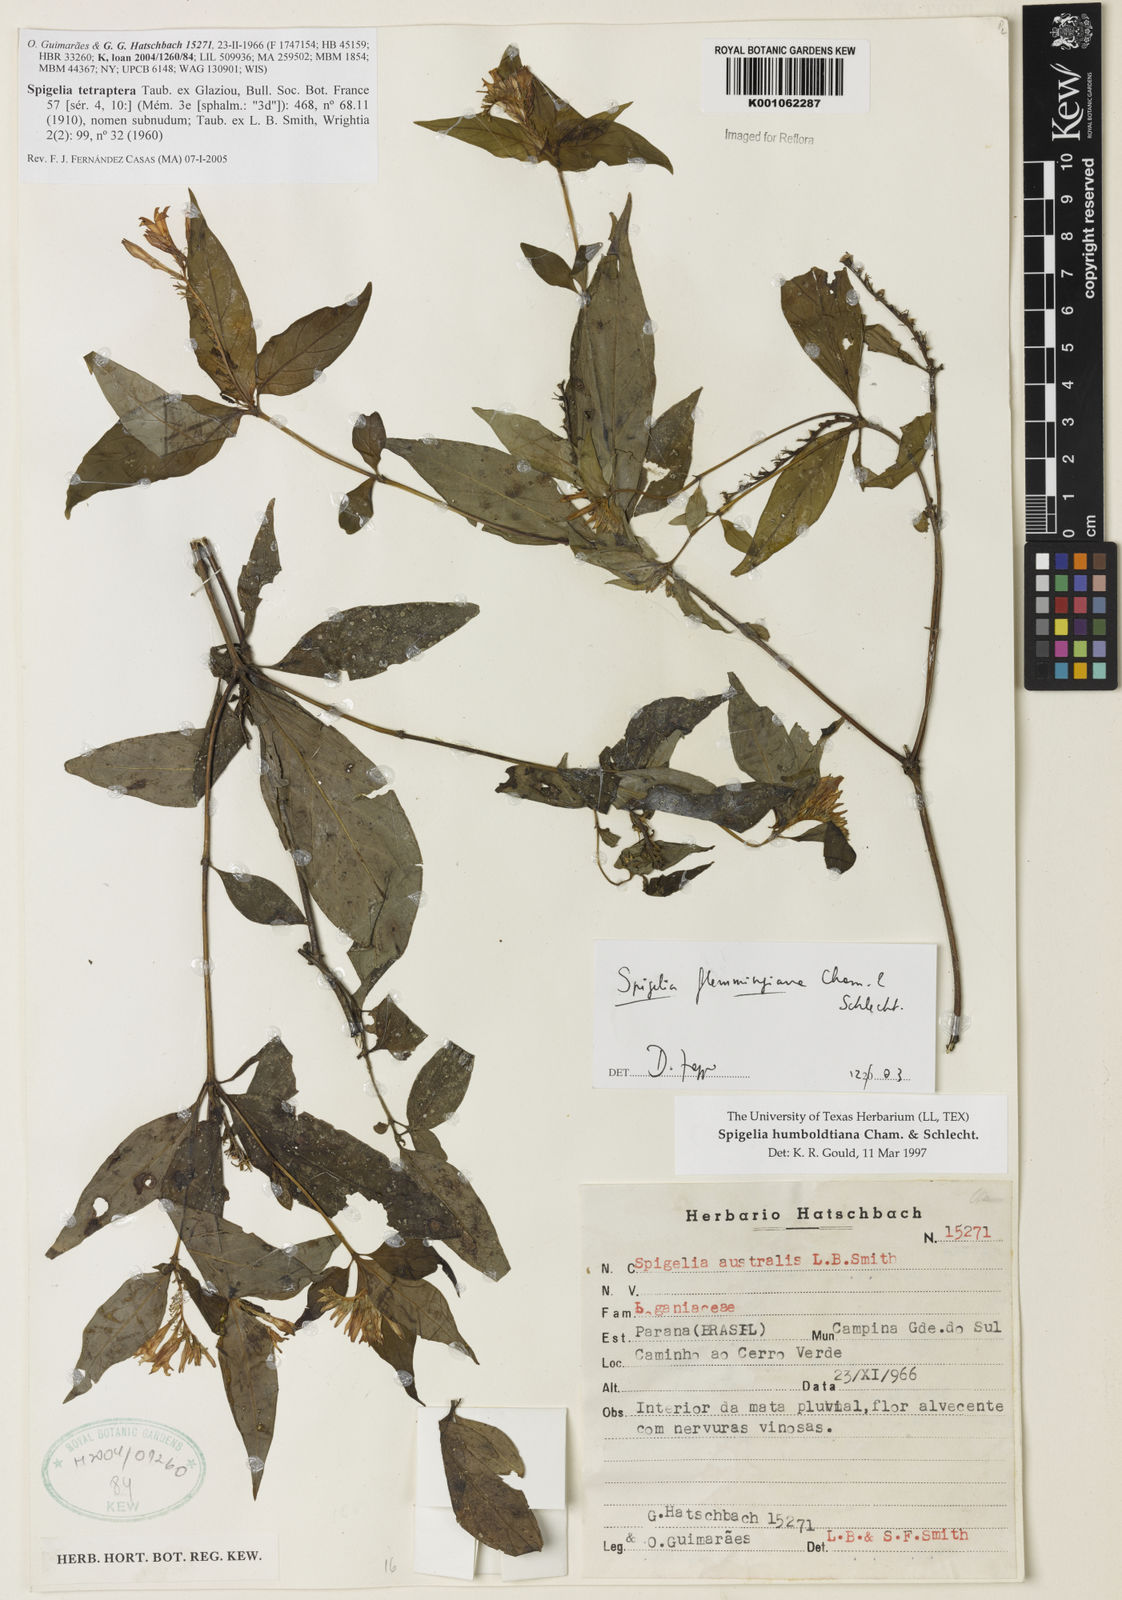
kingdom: Plantae
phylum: Tracheophyta
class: Magnoliopsida
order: Gentianales
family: Loganiaceae
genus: Spigelia
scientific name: Spigelia tetraptera
